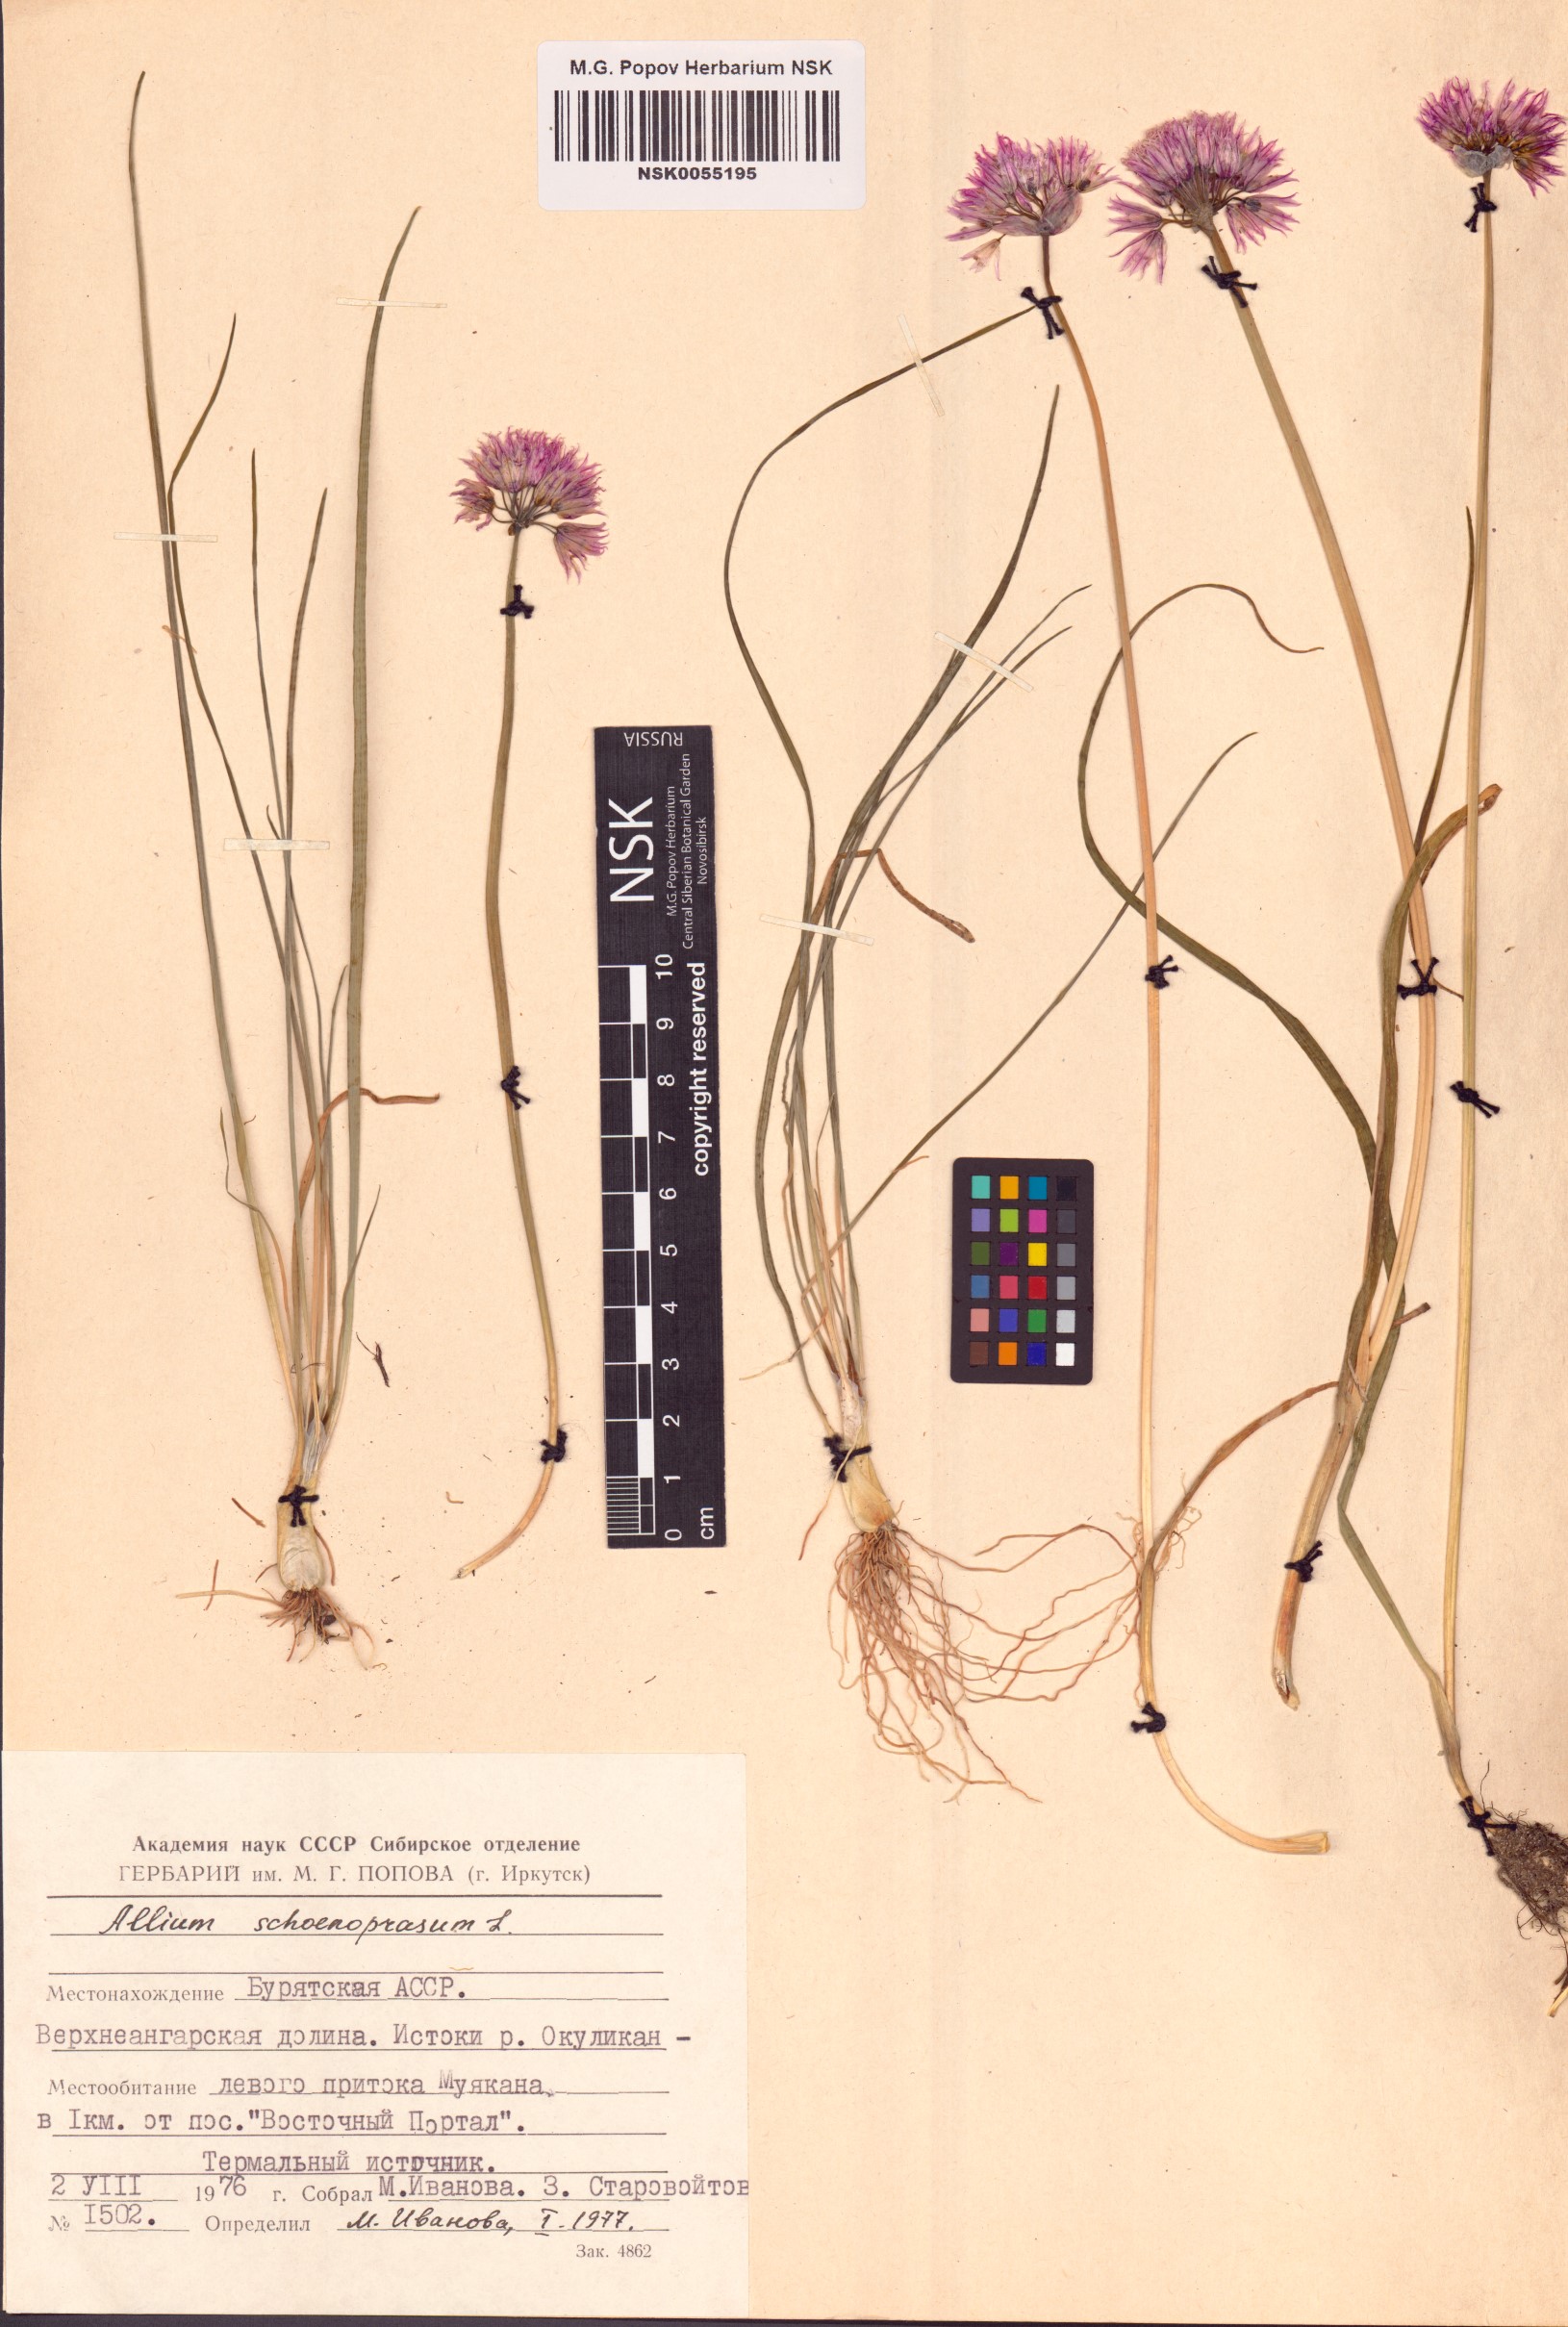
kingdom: Plantae
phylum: Tracheophyta
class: Liliopsida
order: Asparagales
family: Amaryllidaceae
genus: Allium
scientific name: Allium schoenoprasum
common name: Chives
